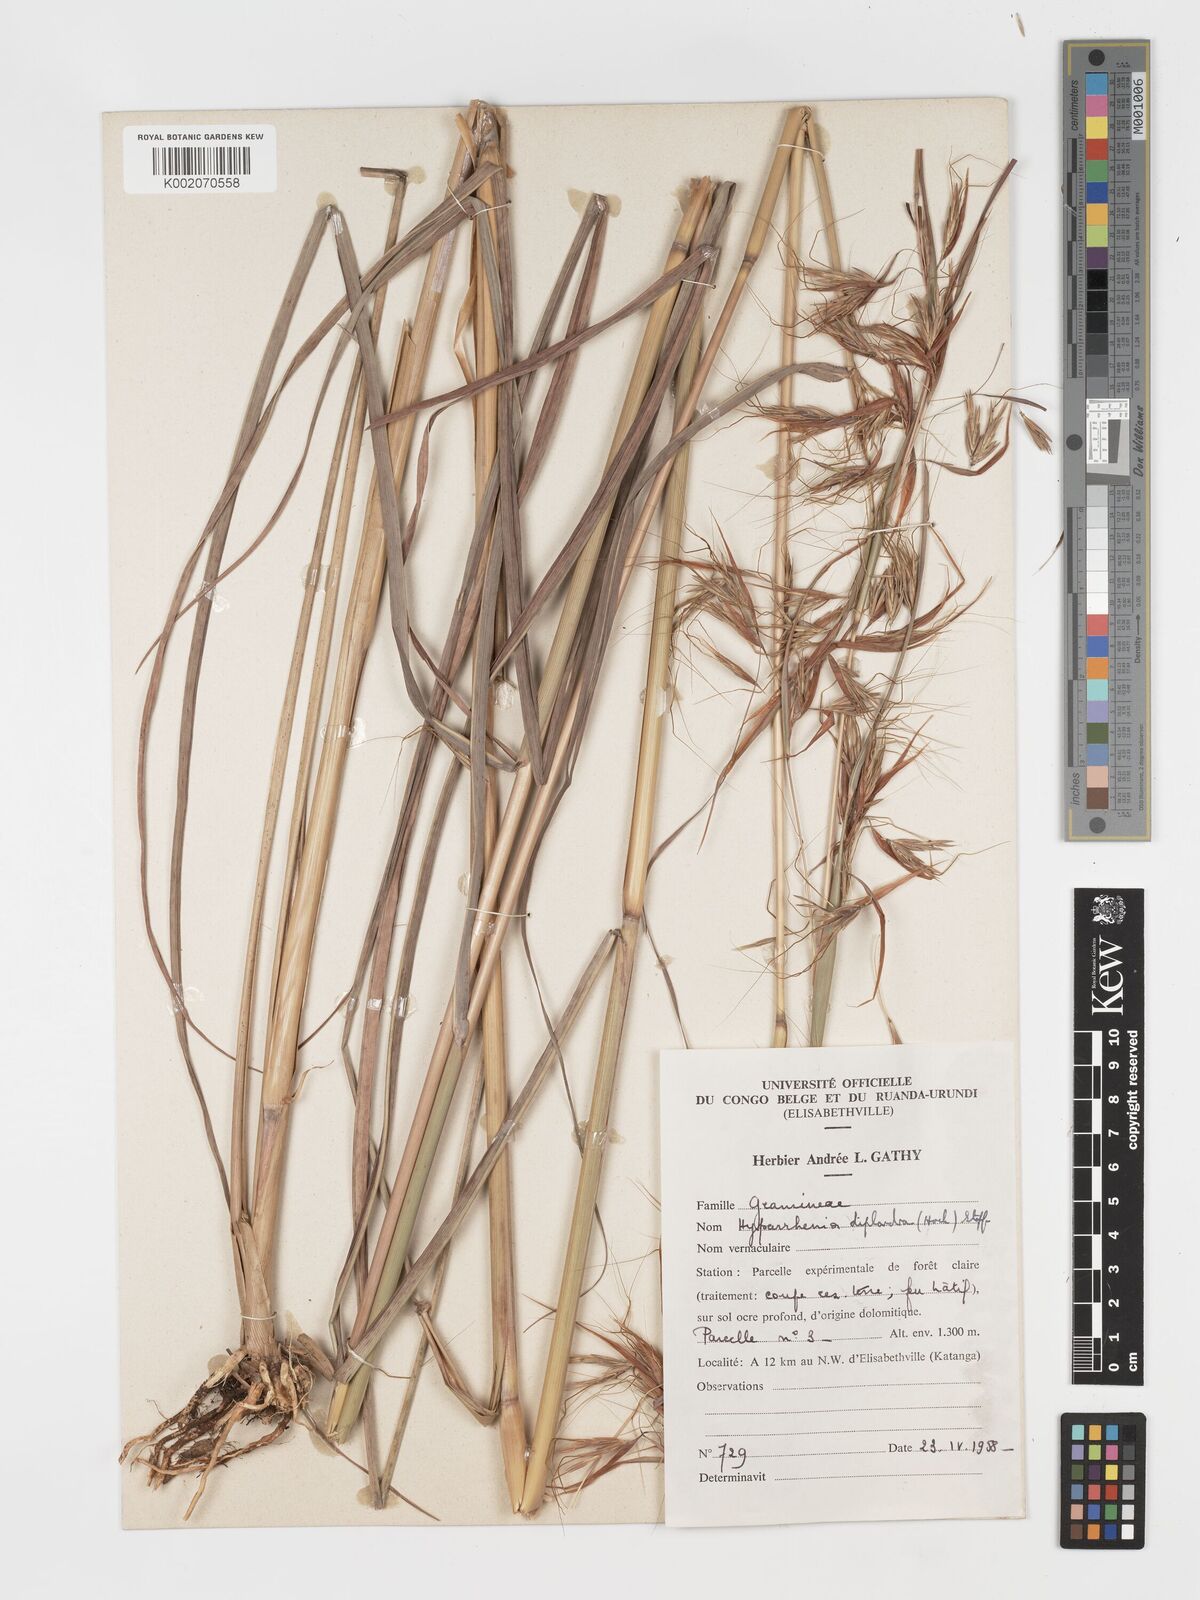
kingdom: Plantae
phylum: Tracheophyta
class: Liliopsida
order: Poales
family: Poaceae
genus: Hyparrhenia
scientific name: Hyparrhenia diplandra
